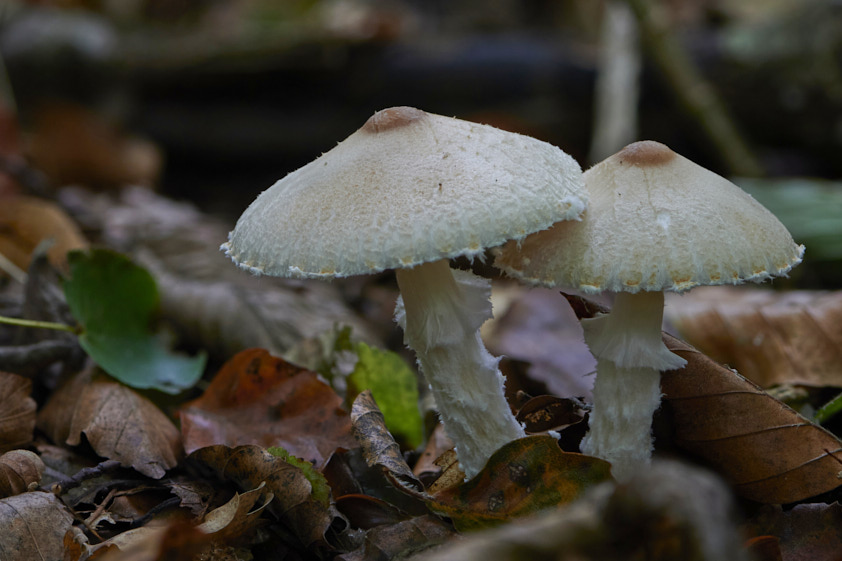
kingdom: Fungi
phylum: Basidiomycota
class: Agaricomycetes
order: Agaricales
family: Agaricaceae
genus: Lepiota
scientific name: Lepiota magnispora
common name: gulfnugget parasolhat
